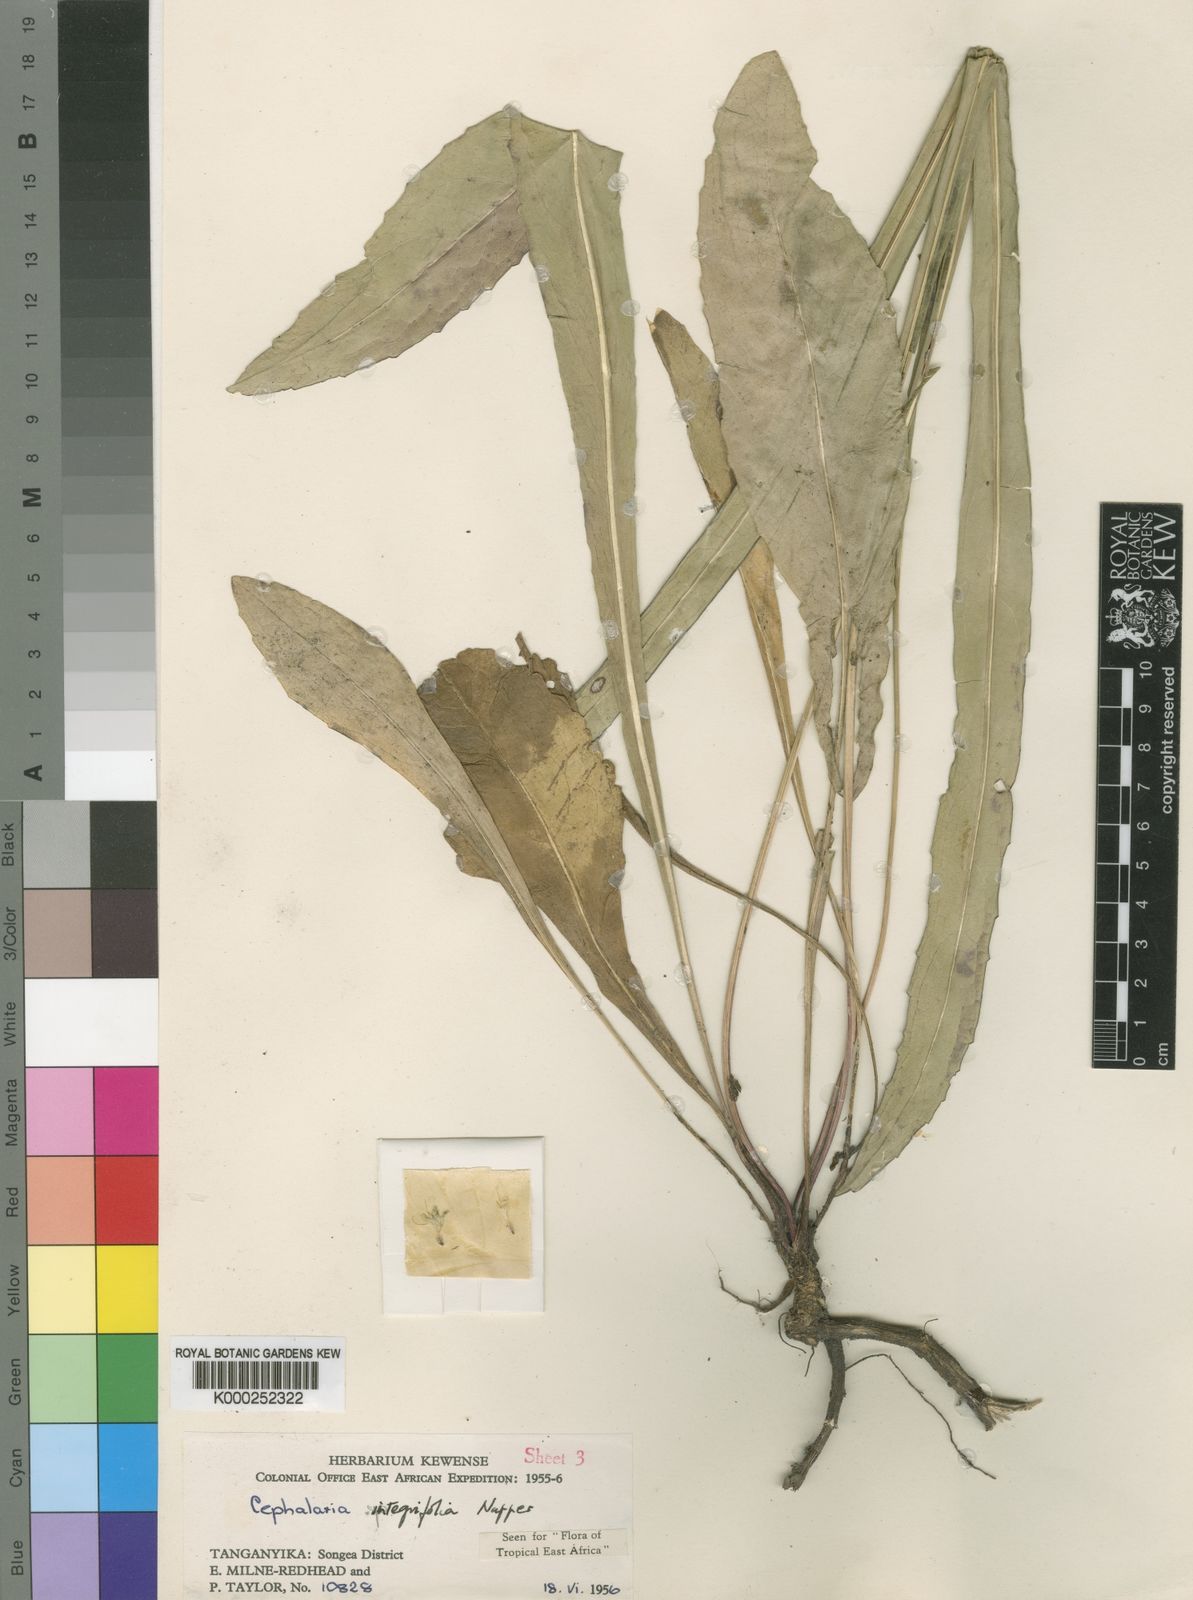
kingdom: Plantae
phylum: Tracheophyta
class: Magnoliopsida
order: Dipsacales
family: Caprifoliaceae
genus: Cephalaria
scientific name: Cephalaria integrifolia
